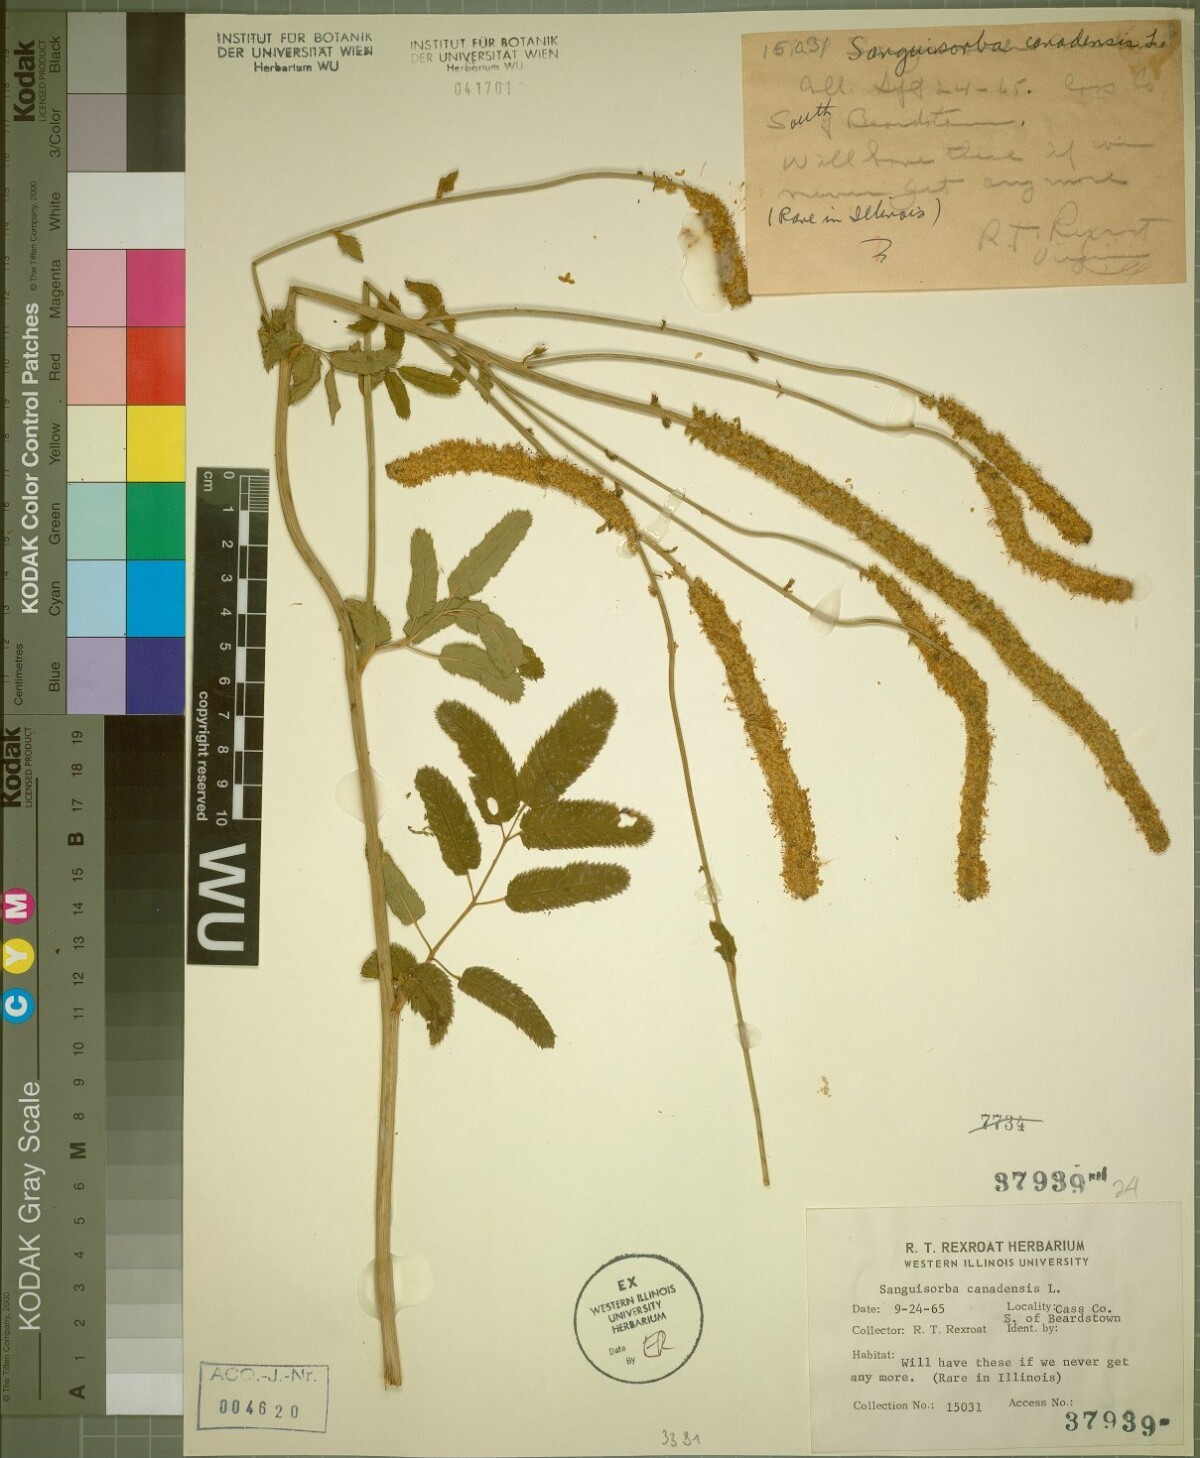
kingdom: Plantae
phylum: Tracheophyta
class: Magnoliopsida
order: Rosales
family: Rosaceae
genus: Sanguisorba
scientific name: Sanguisorba canadensis
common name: White burnet
